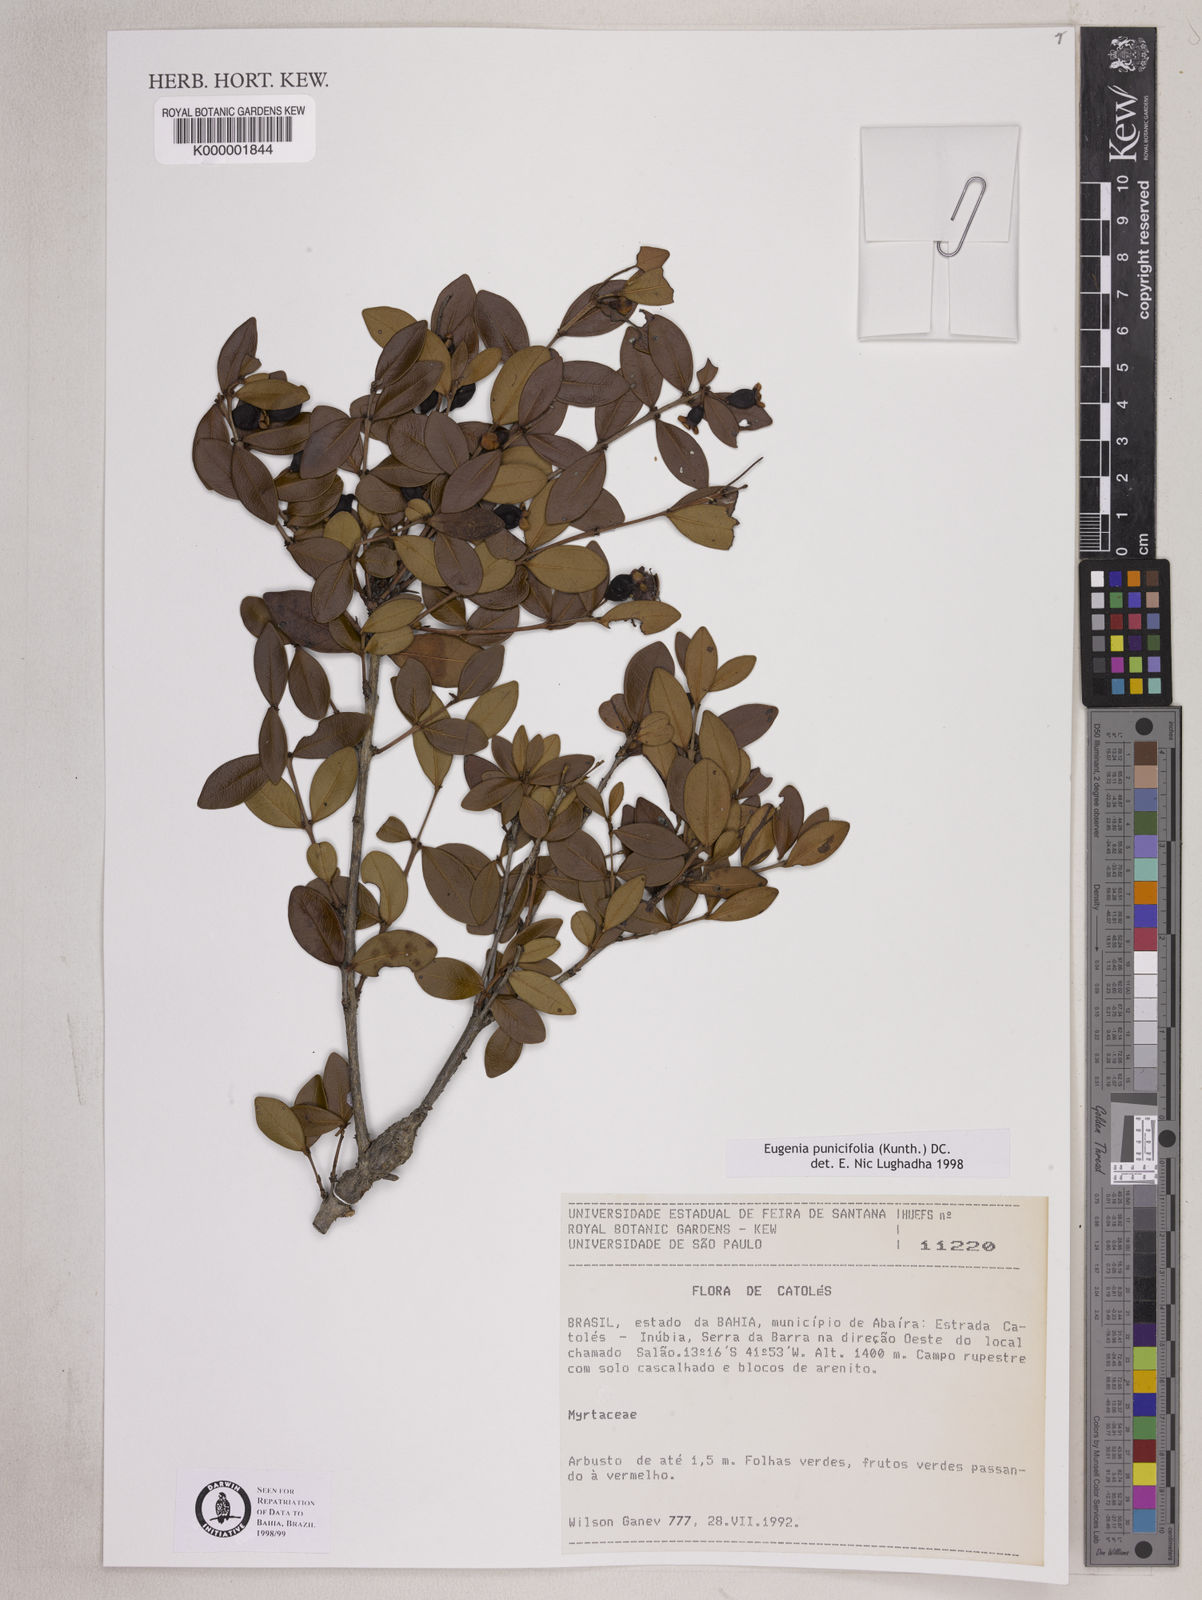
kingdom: Plantae
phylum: Tracheophyta
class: Magnoliopsida
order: Myrtales
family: Myrtaceae
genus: Eugenia
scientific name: Eugenia punicifolia
